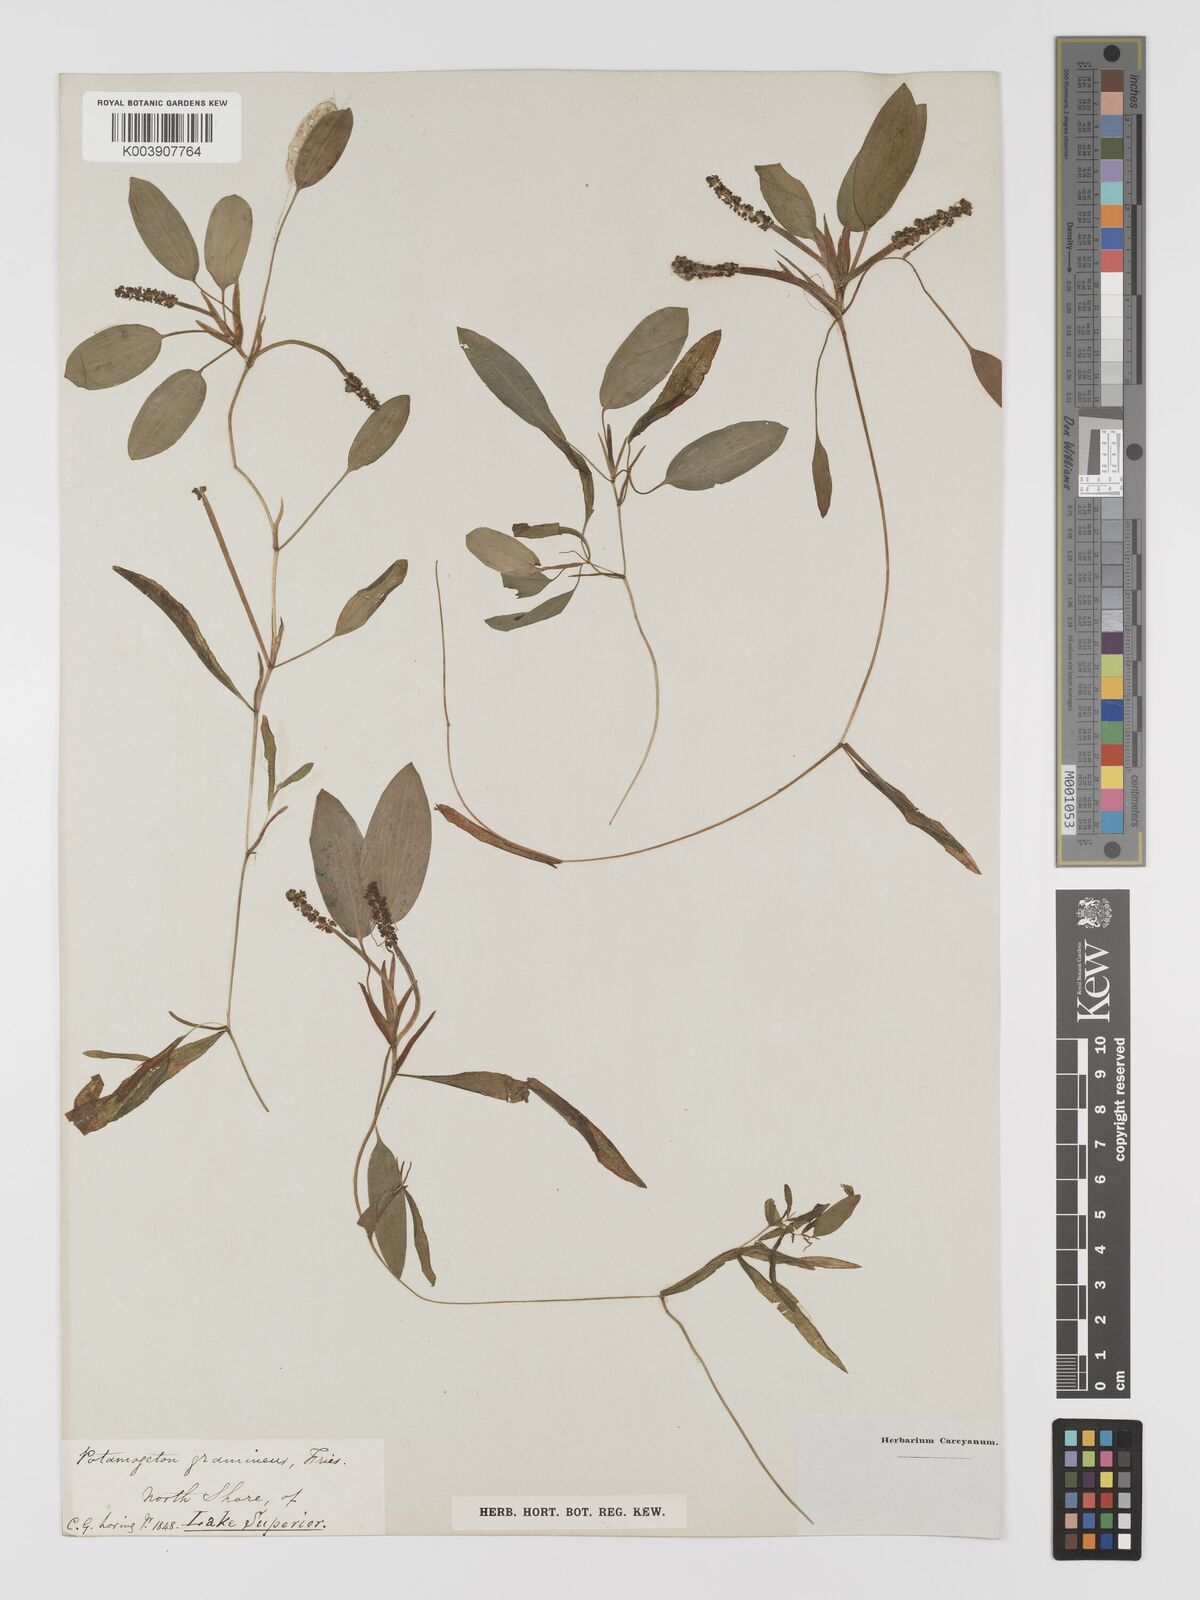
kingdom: Plantae
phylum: Tracheophyta
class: Liliopsida
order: Alismatales
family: Potamogetonaceae
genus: Potamogeton
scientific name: Potamogeton gramineus
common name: Various-leaved pondweed
